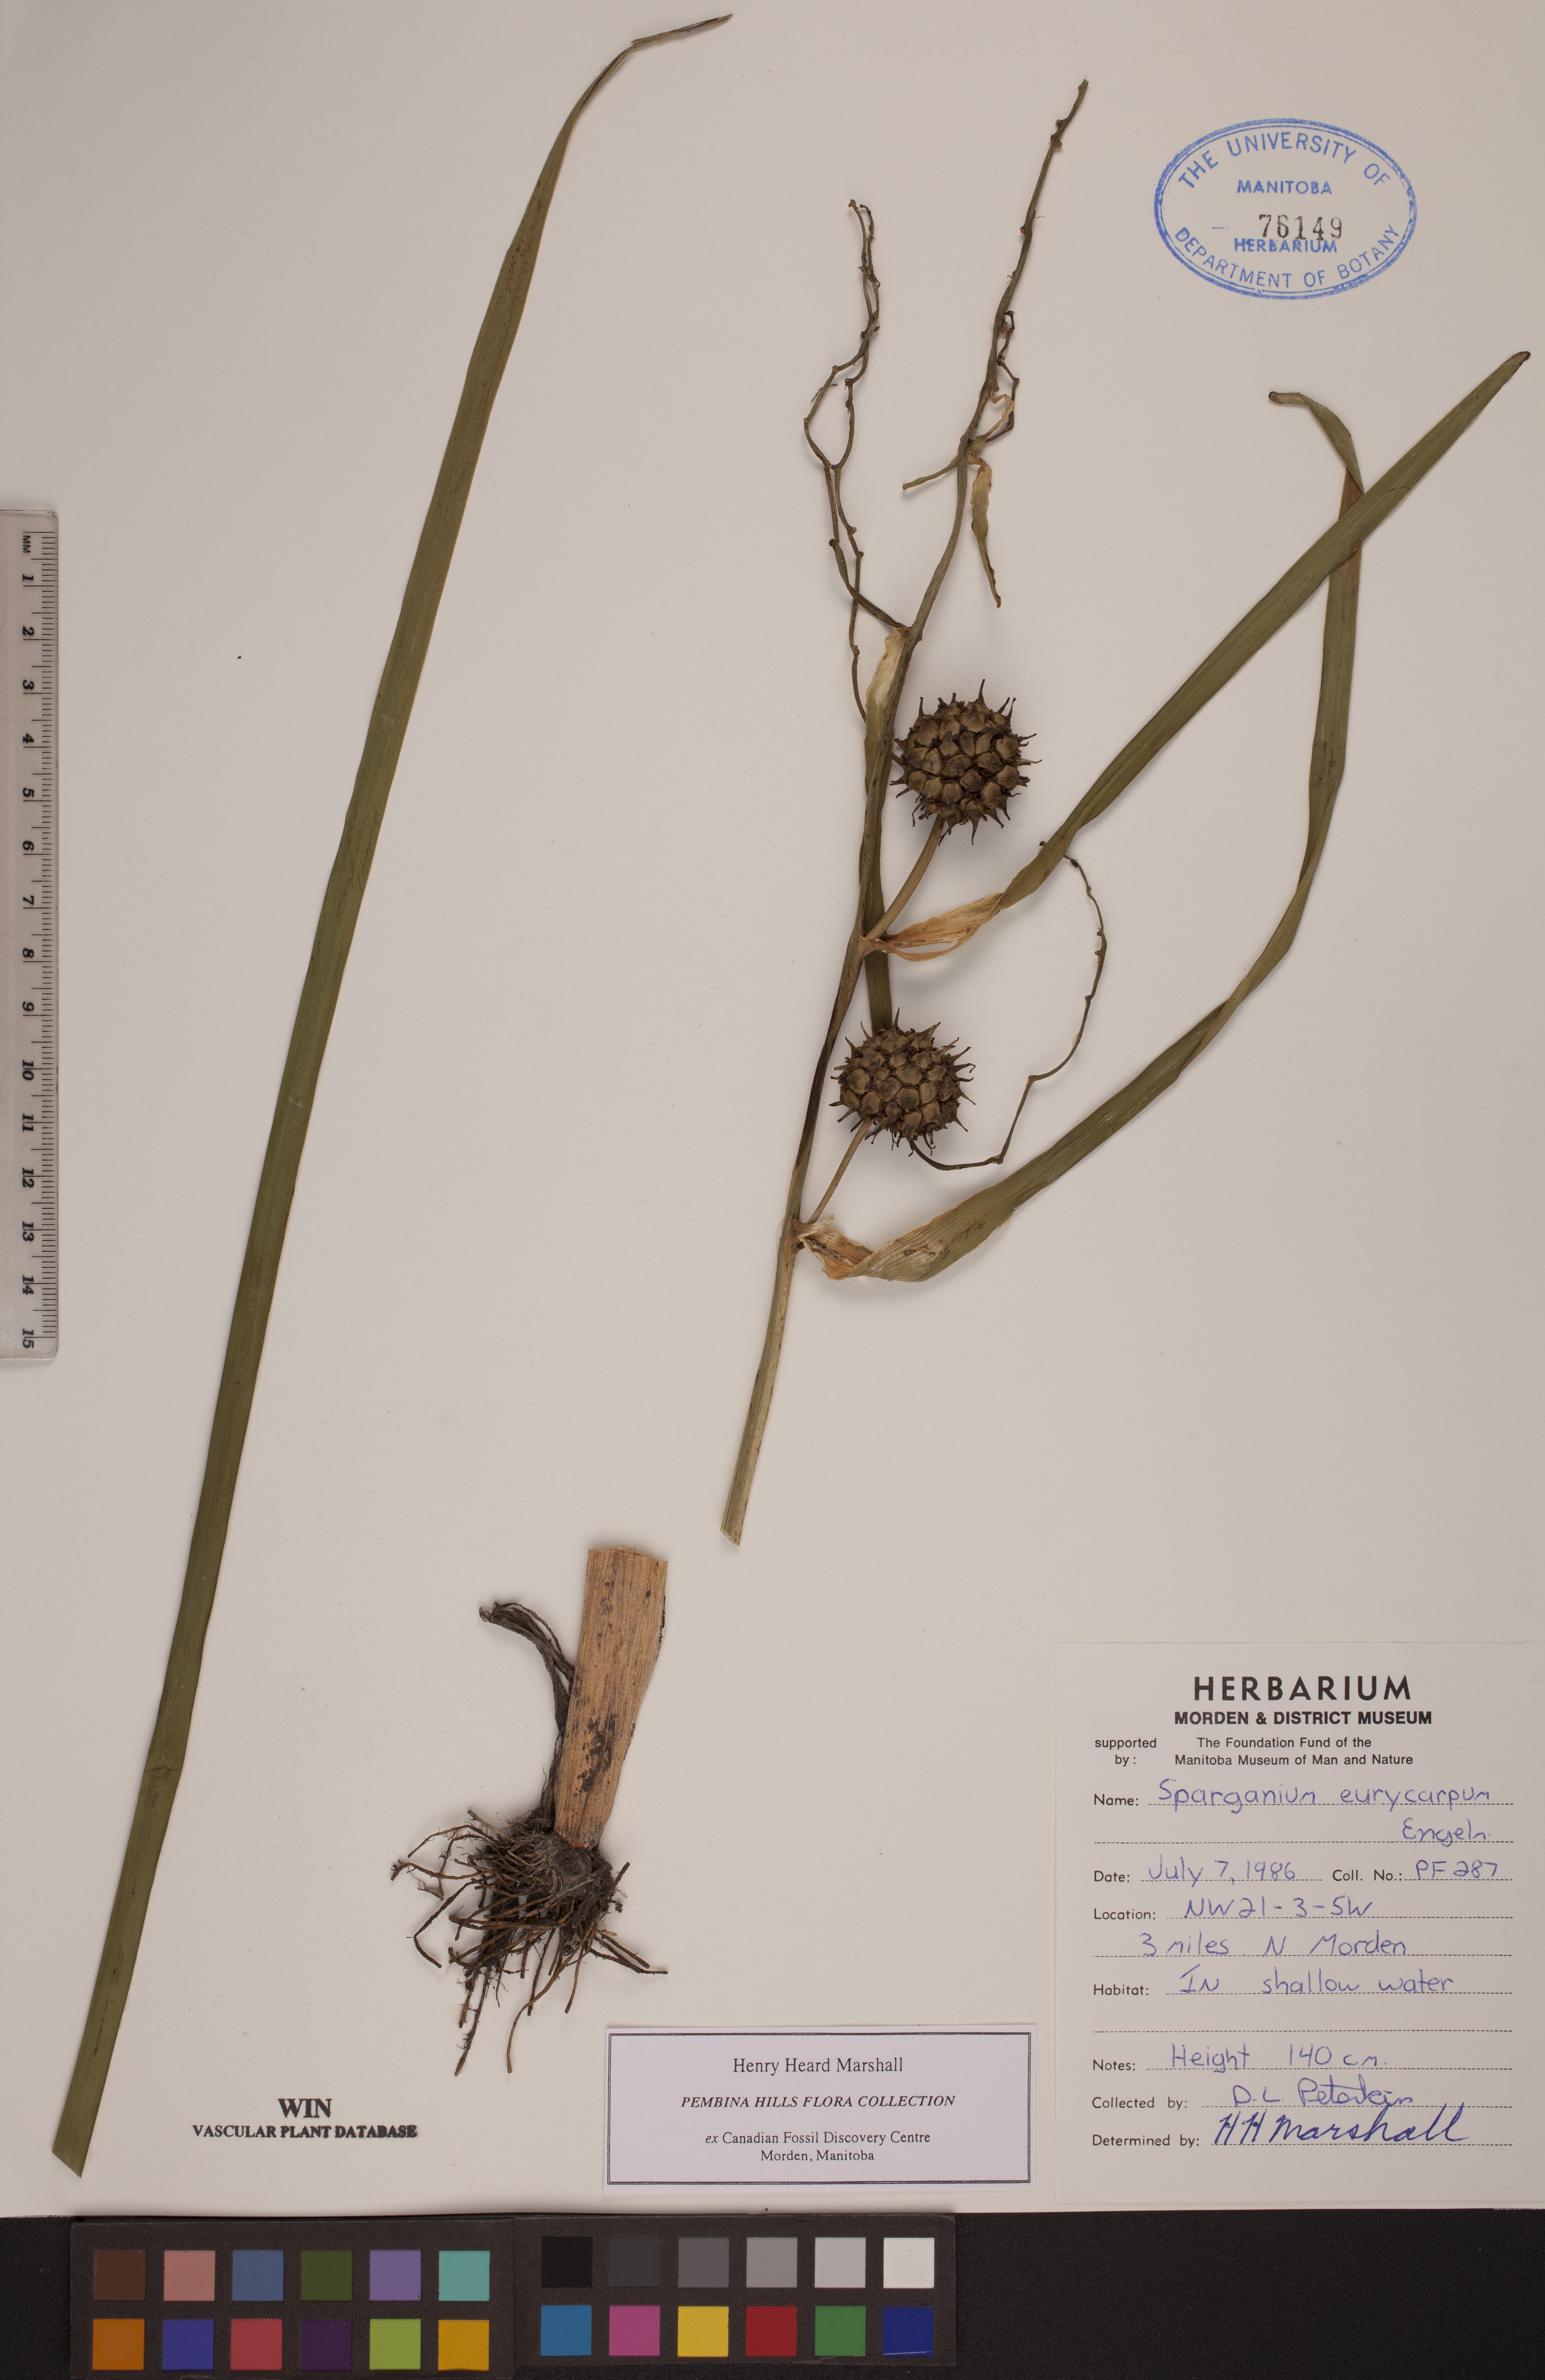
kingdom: Plantae
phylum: Tracheophyta
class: Liliopsida
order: Poales
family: Typhaceae
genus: Sparganium
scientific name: Sparganium eurycarpum
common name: Broad-fruited burreed
